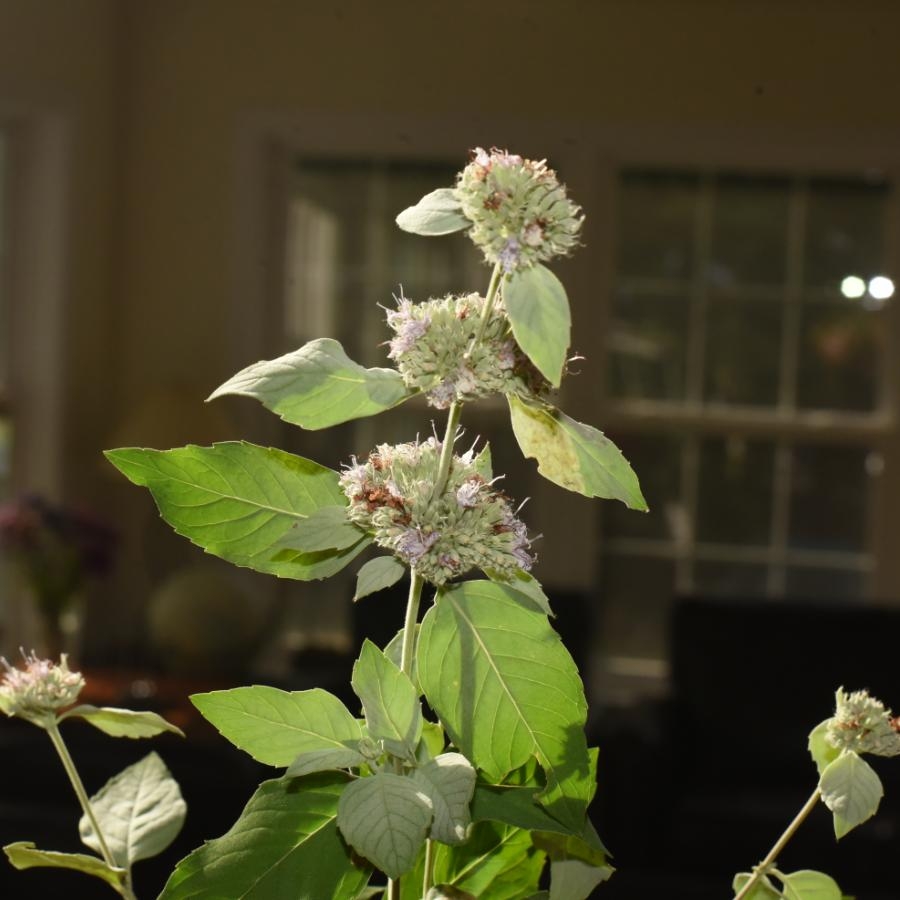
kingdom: Plantae
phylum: Tracheophyta
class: Magnoliopsida
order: Lamiales
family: Lamiaceae
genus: Pycnanthemum
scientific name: Pycnanthemum incanum
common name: Hoary Mountainmint
